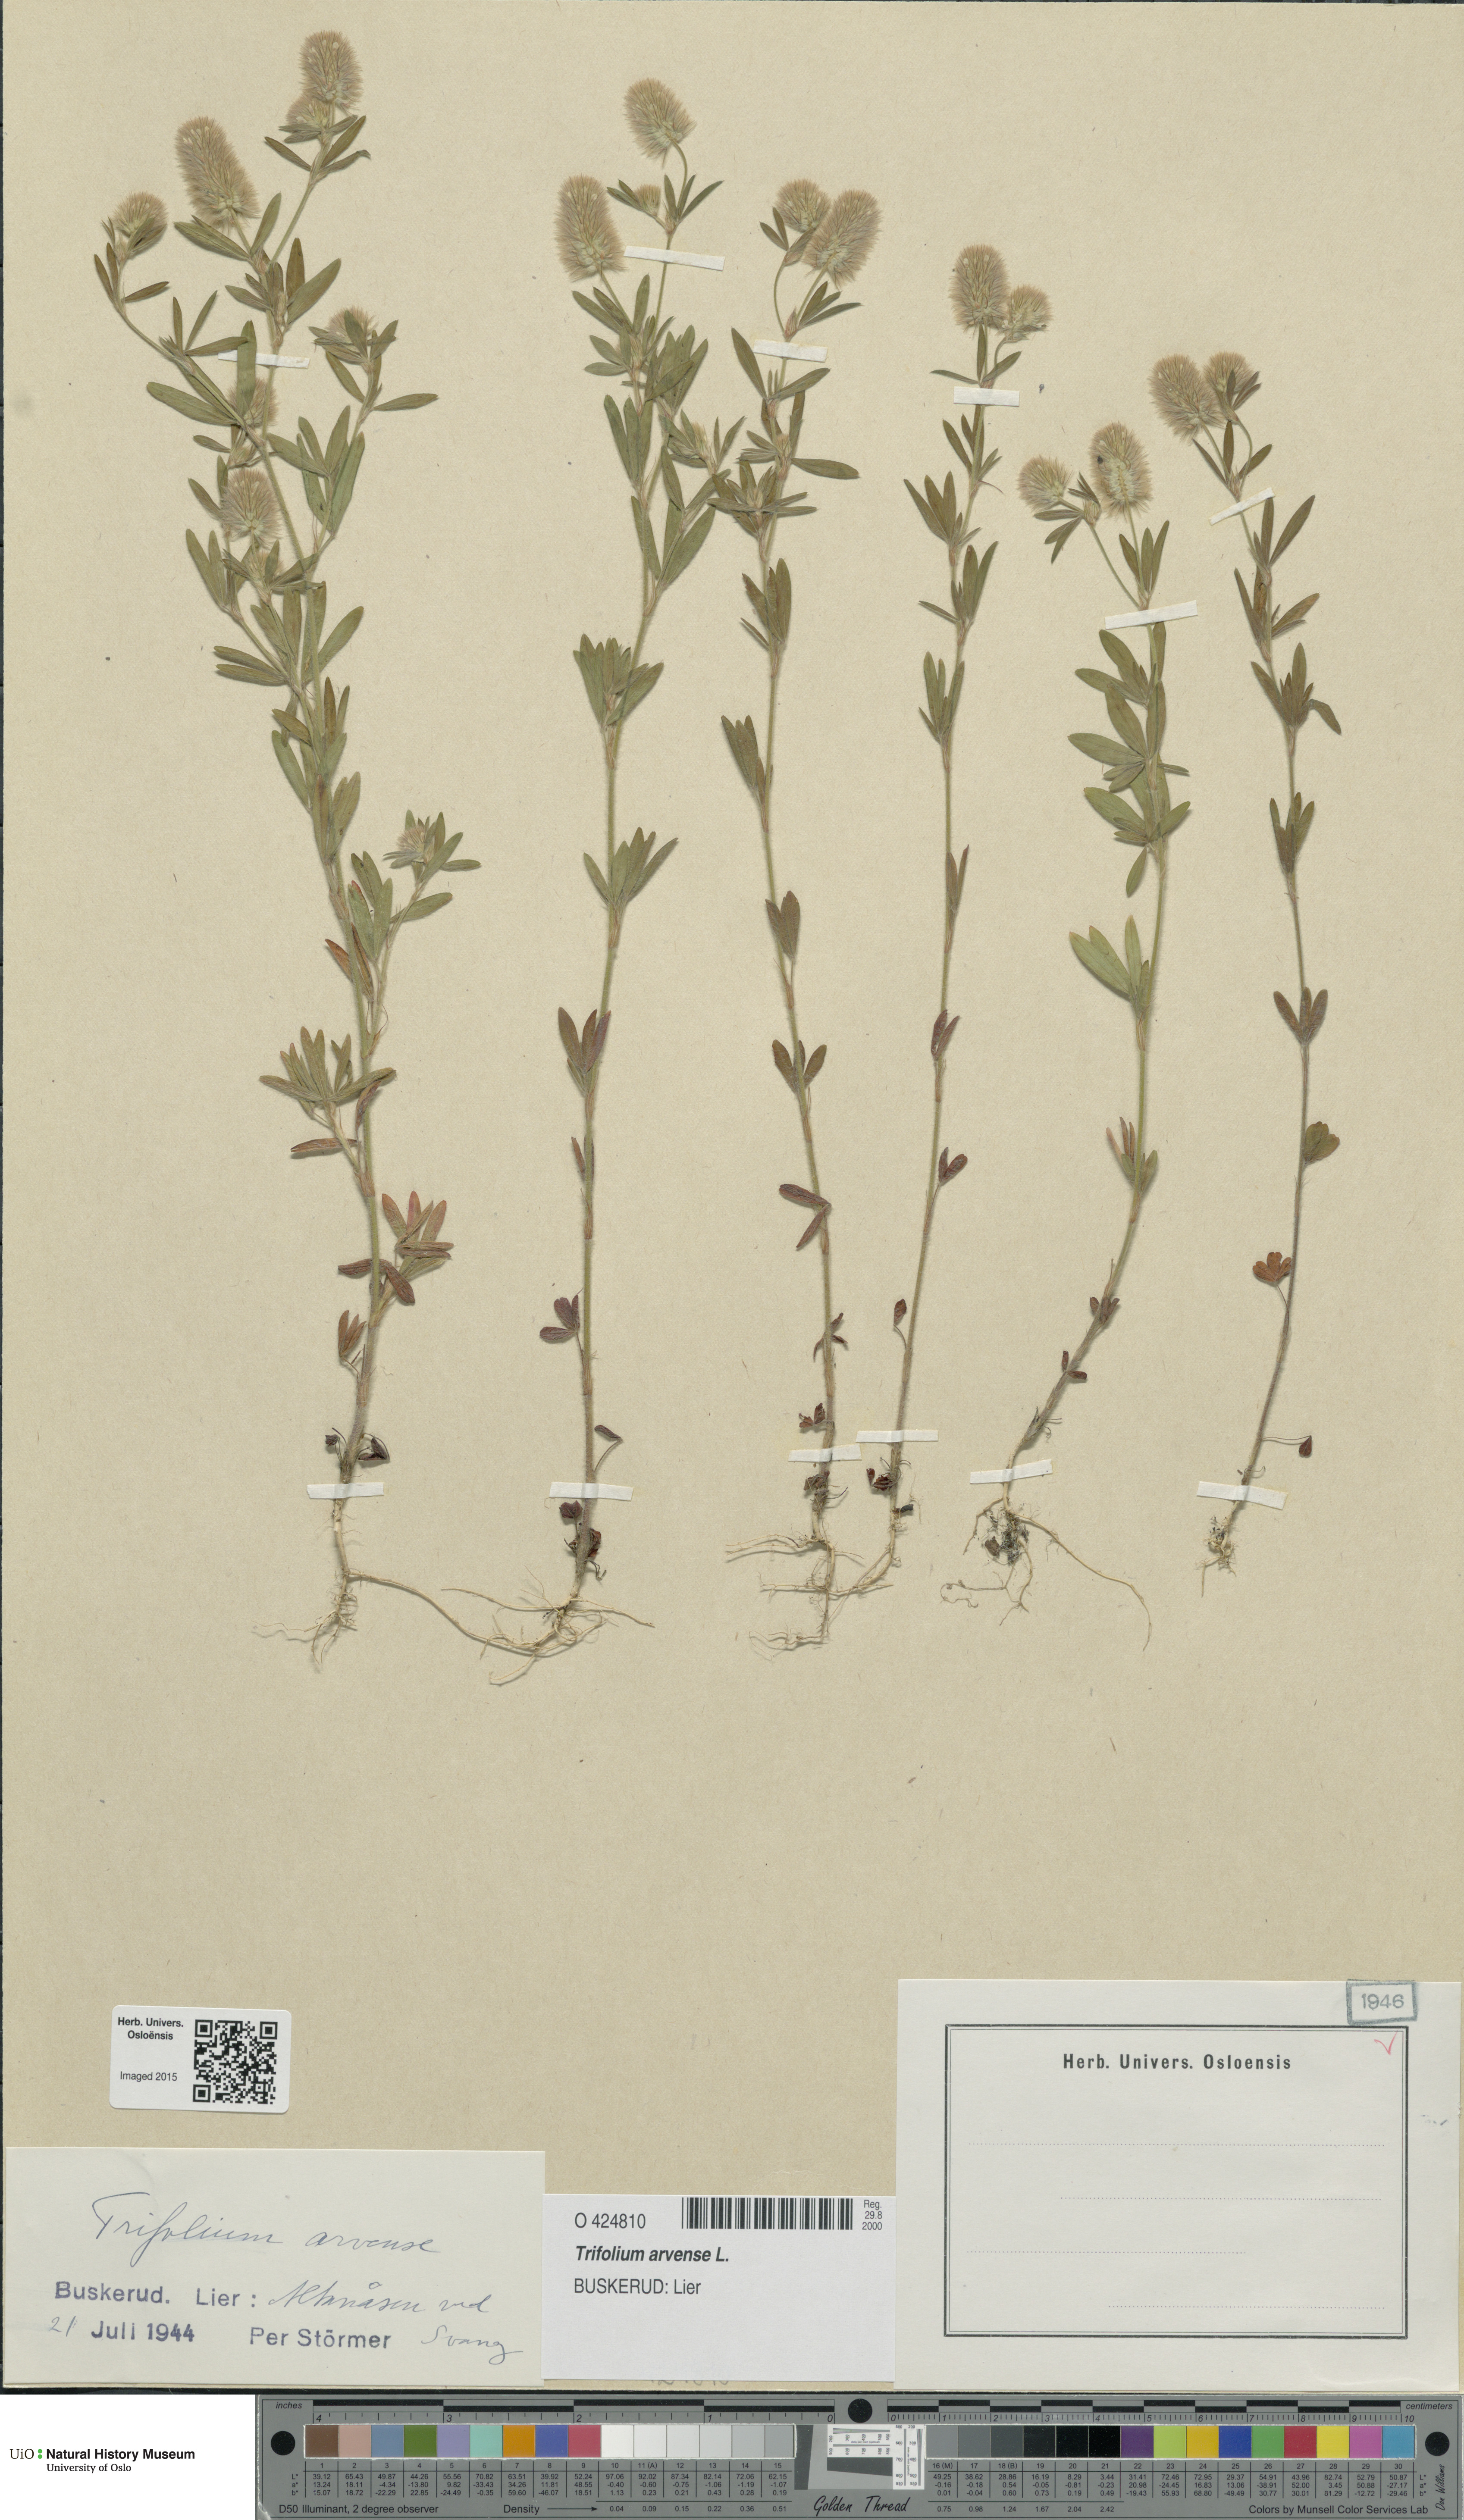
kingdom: Plantae
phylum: Tracheophyta
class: Magnoliopsida
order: Fabales
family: Fabaceae
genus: Trifolium
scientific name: Trifolium arvense
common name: Hare's-foot clover
